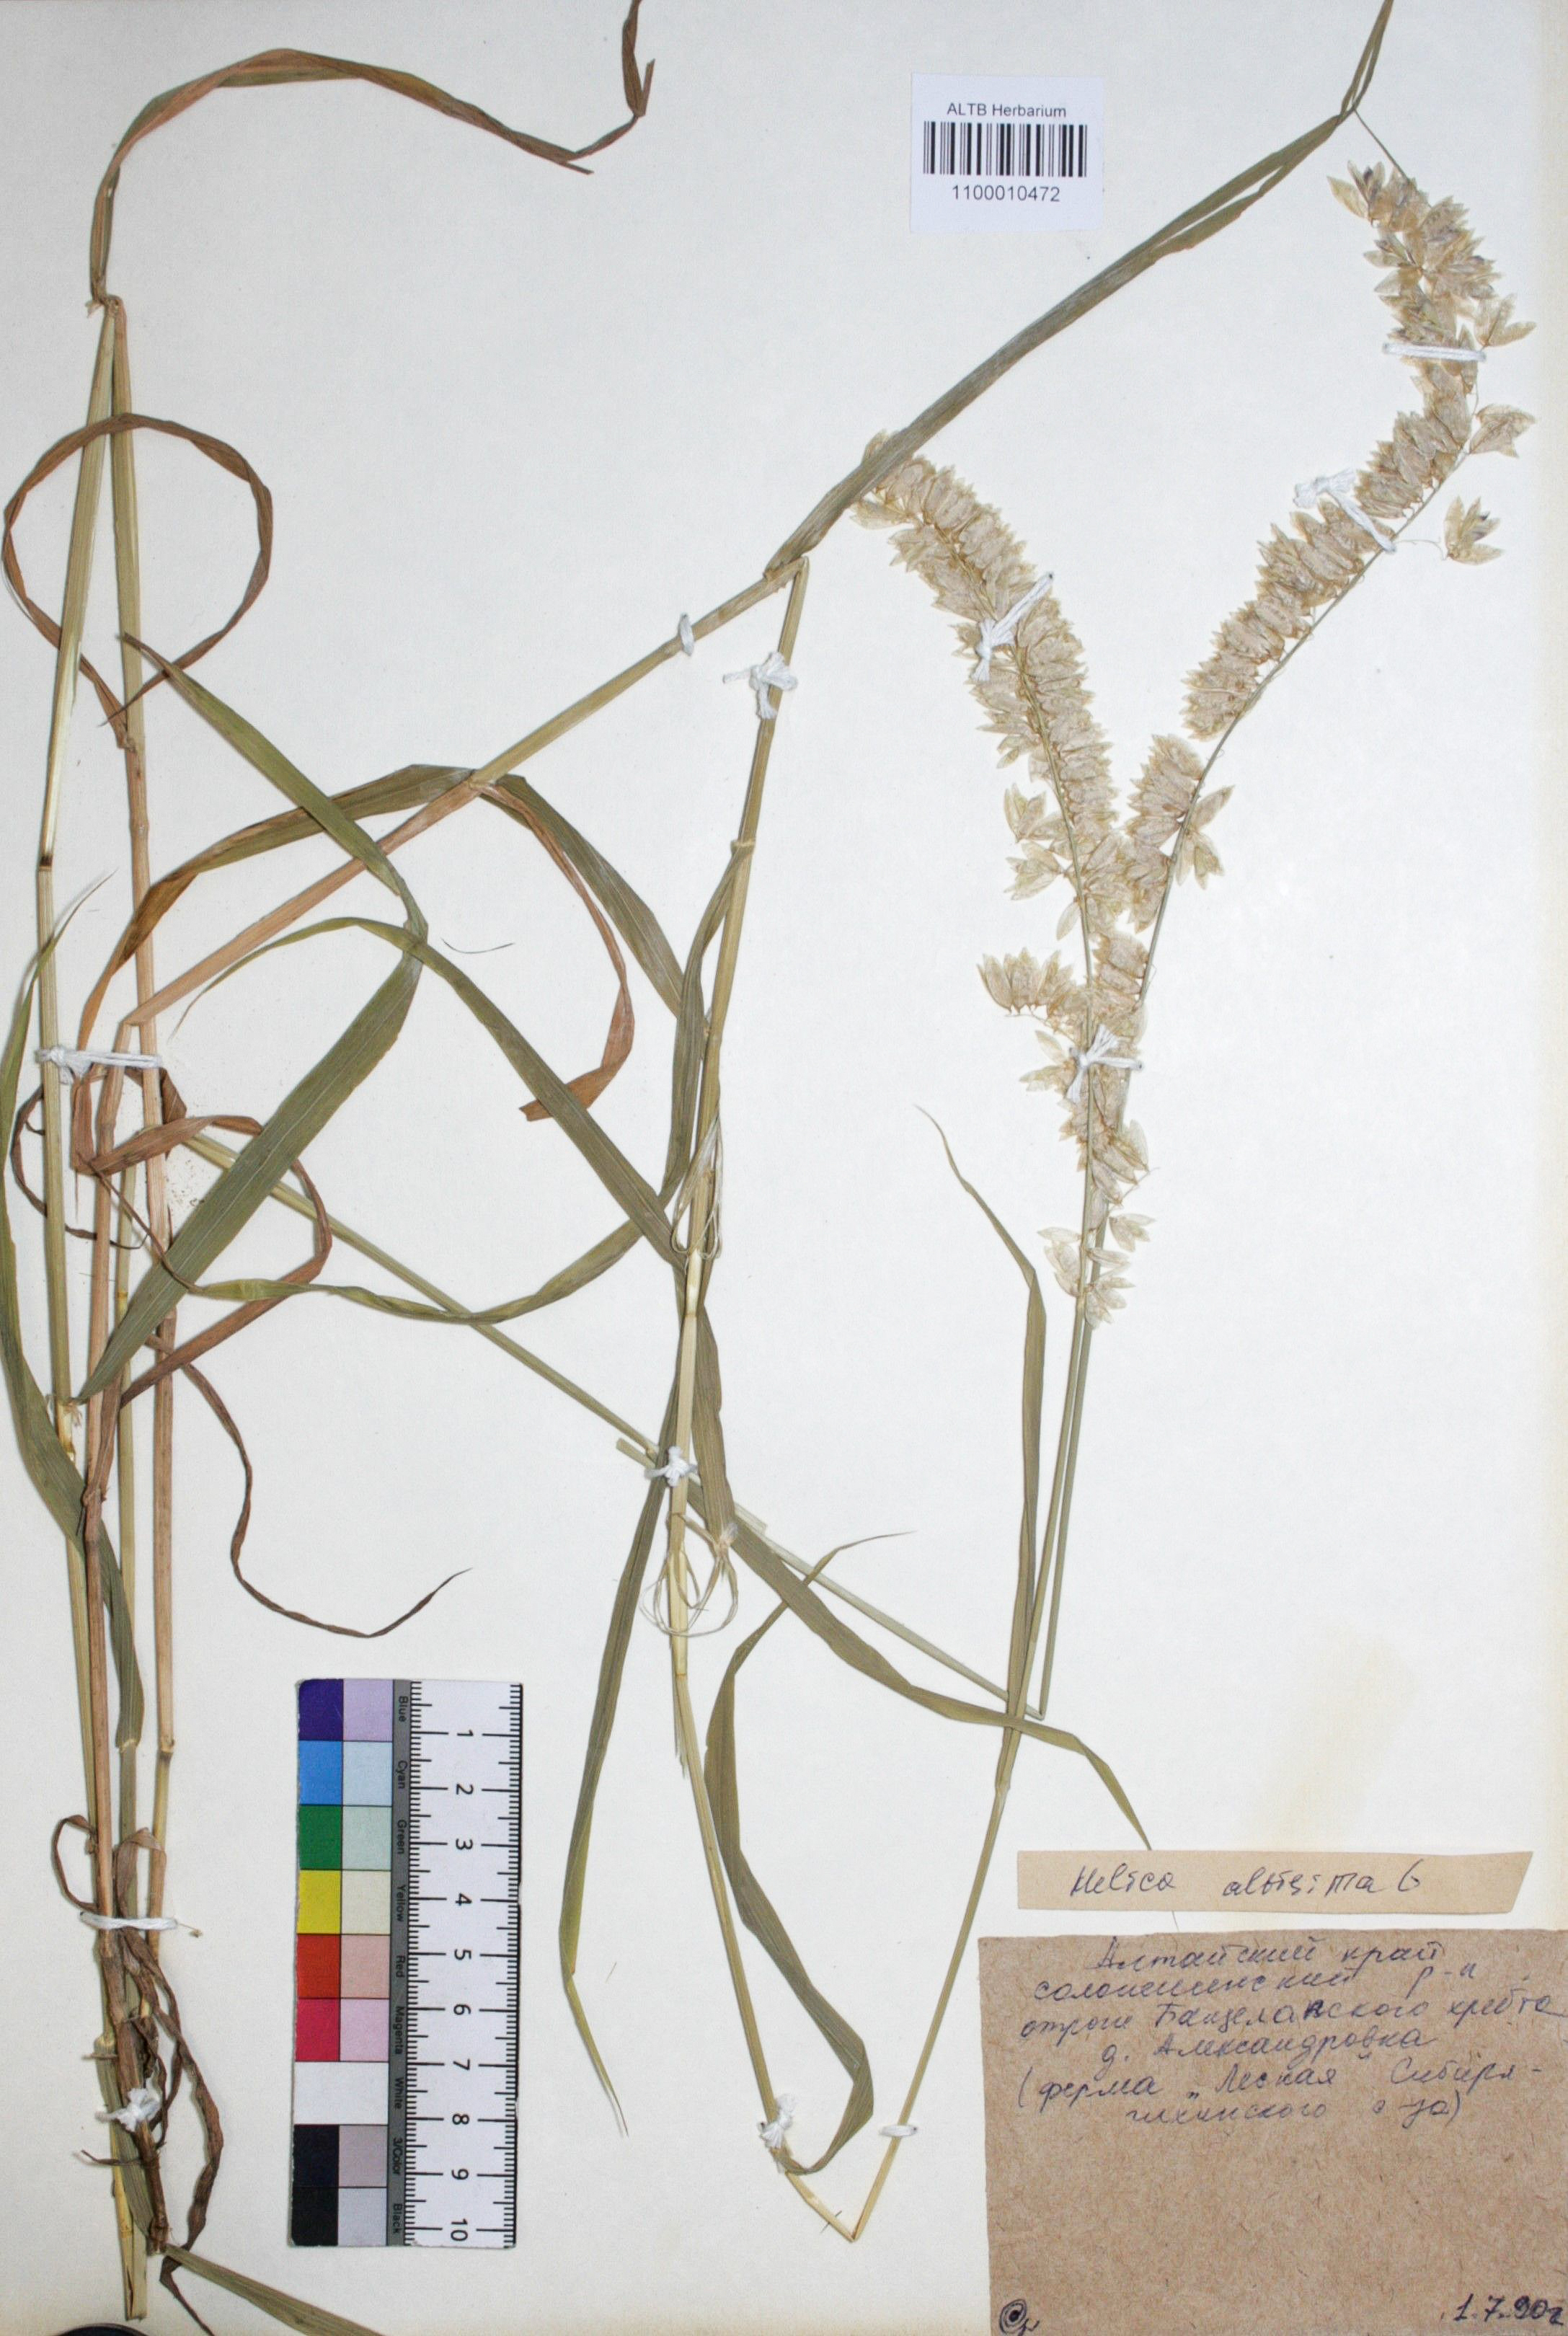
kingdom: Plantae
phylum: Tracheophyta
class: Liliopsida
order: Poales
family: Poaceae
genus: Melica
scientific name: Melica altissima
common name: Siberian melicgrass
